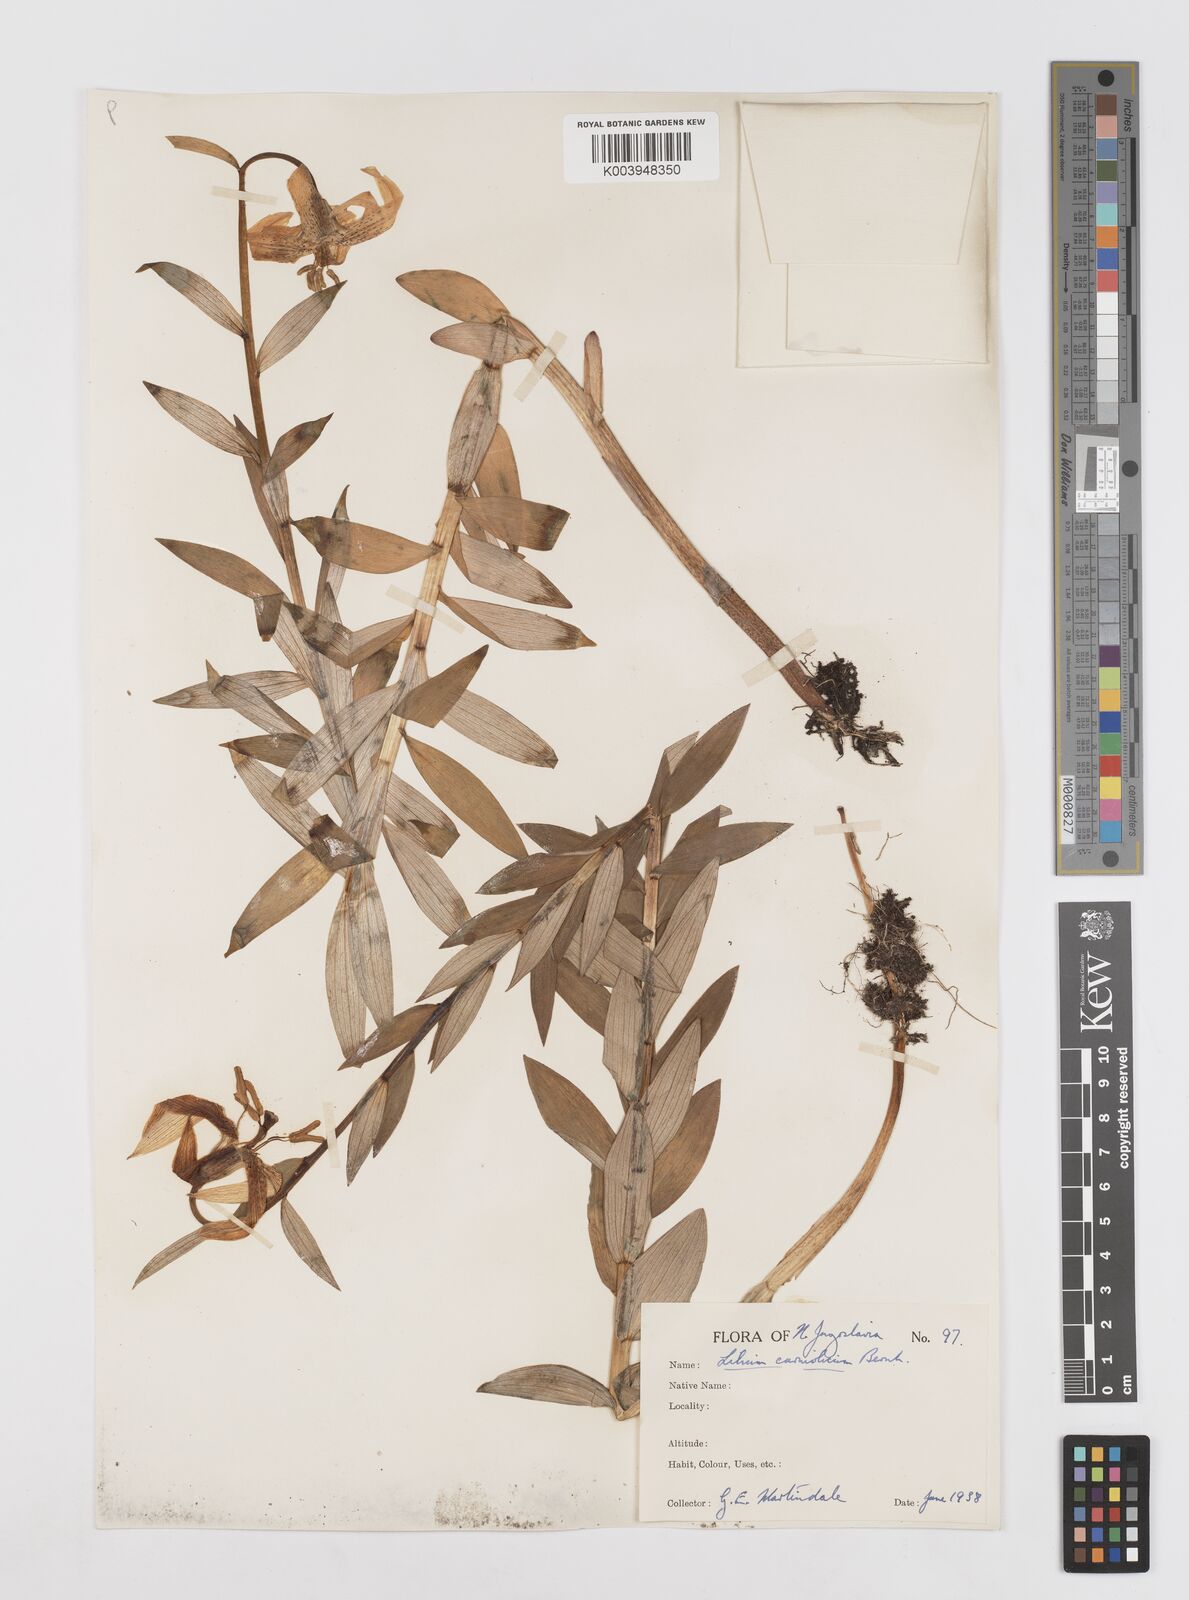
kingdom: Plantae
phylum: Tracheophyta
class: Liliopsida
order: Liliales
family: Liliaceae
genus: Lilium
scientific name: Lilium carniolicum
